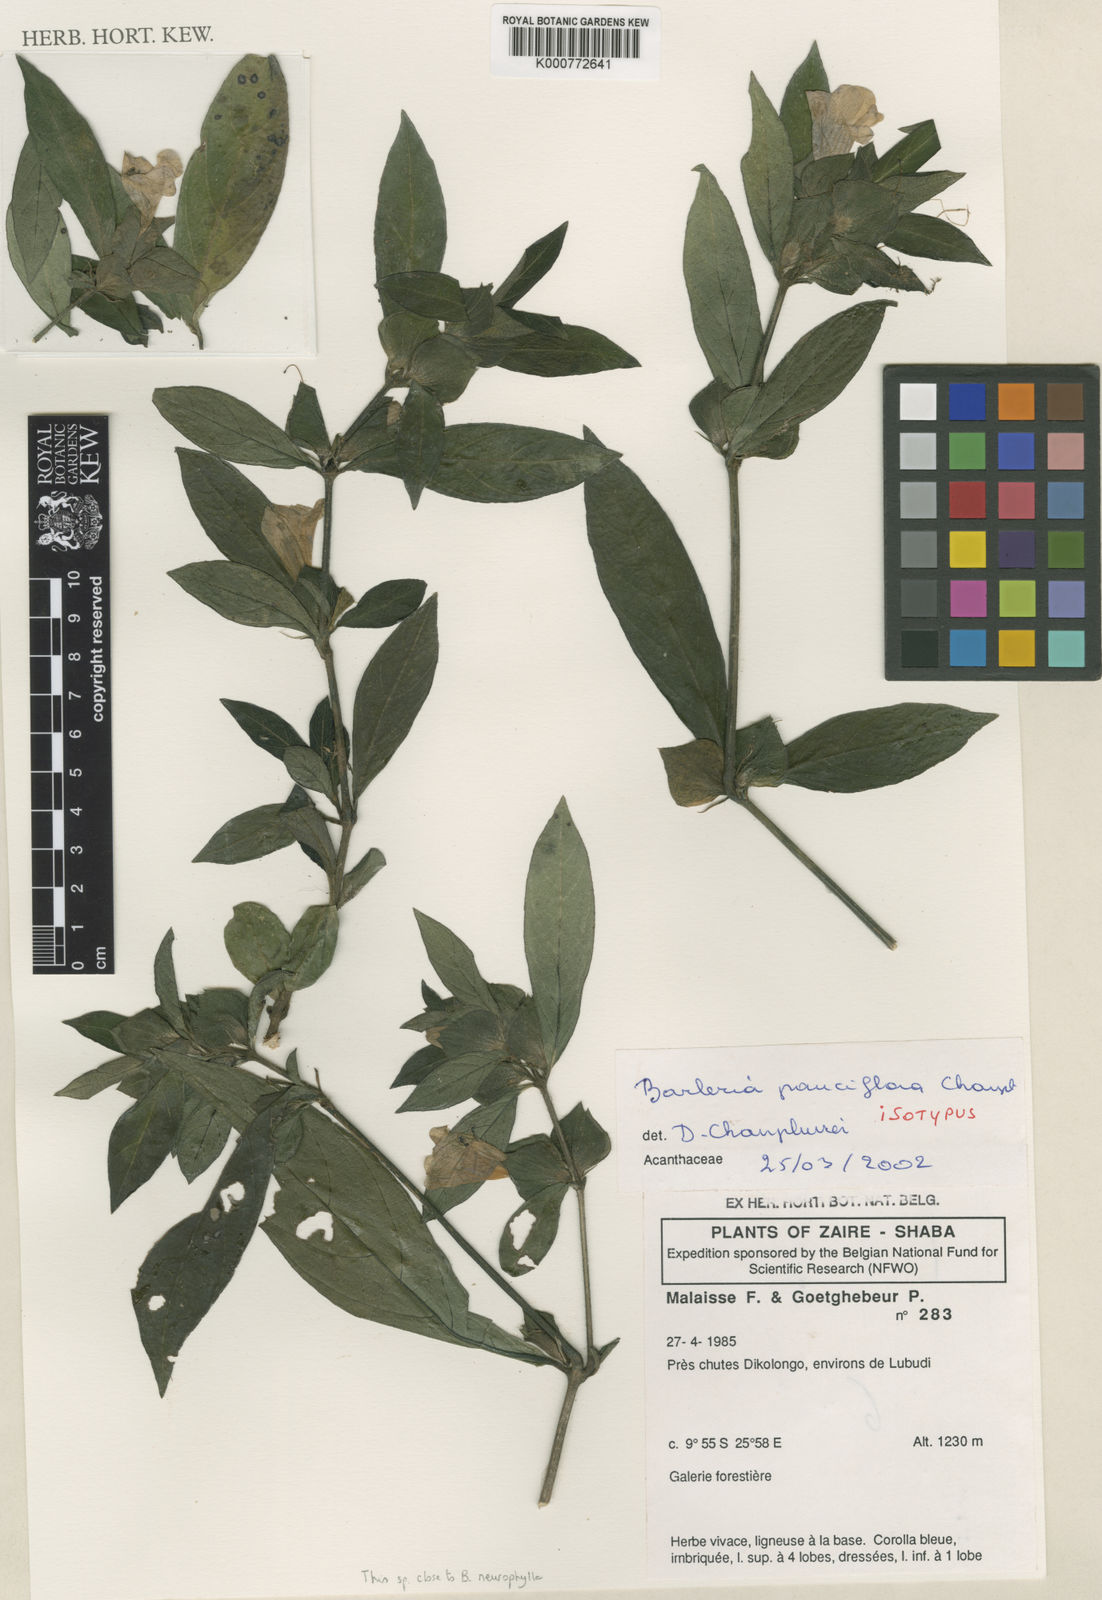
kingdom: Plantae
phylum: Tracheophyta
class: Magnoliopsida
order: Lamiales
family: Acanthaceae
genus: Barleria
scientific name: Barleria gandhii
